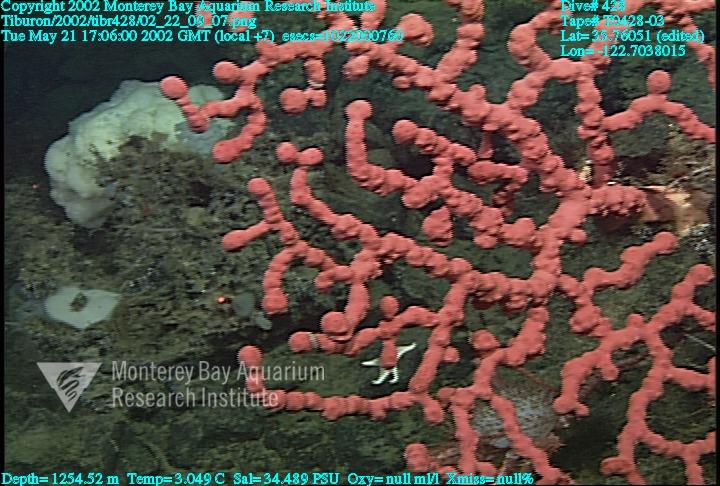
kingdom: Animalia
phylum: Porifera
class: Hexactinellida
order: Sceptrulophora
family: Euretidae
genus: Chonelasma
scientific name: Chonelasma
